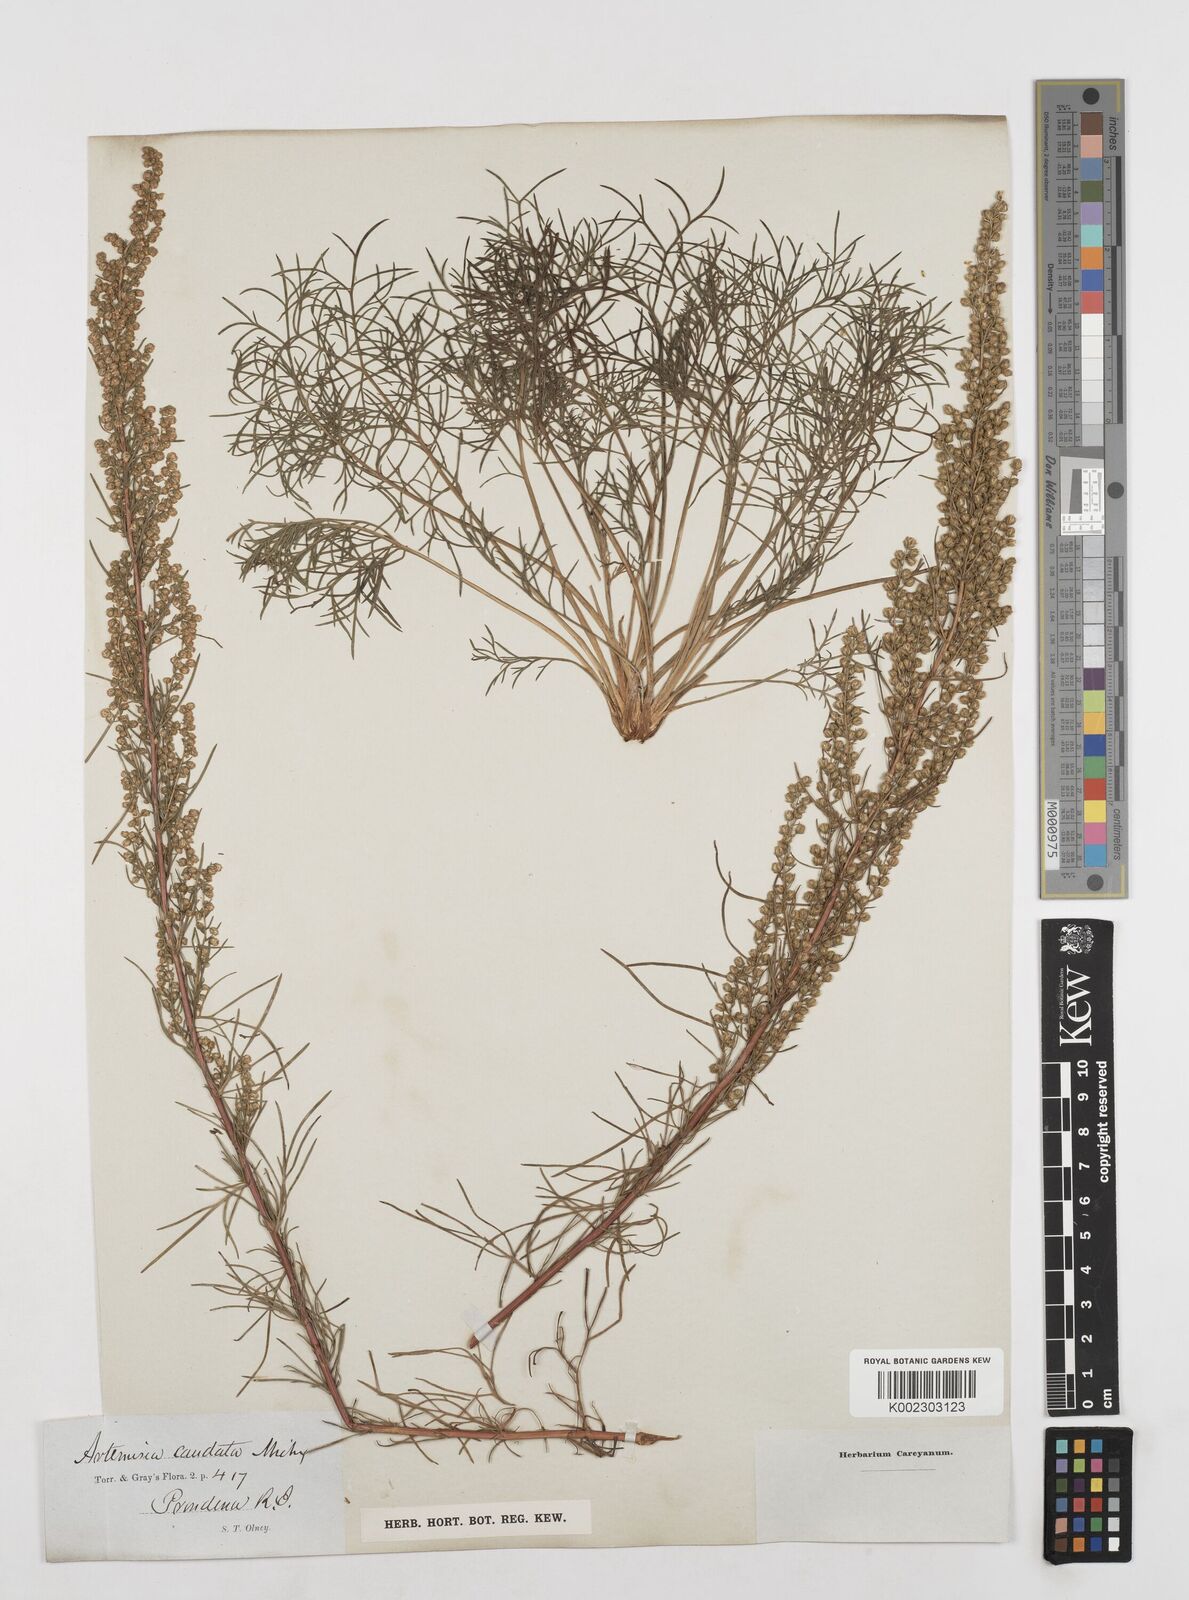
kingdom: Plantae
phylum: Tracheophyta
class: Magnoliopsida
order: Asterales
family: Asteraceae
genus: Artemisia
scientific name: Artemisia campestris
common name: Field wormwood
